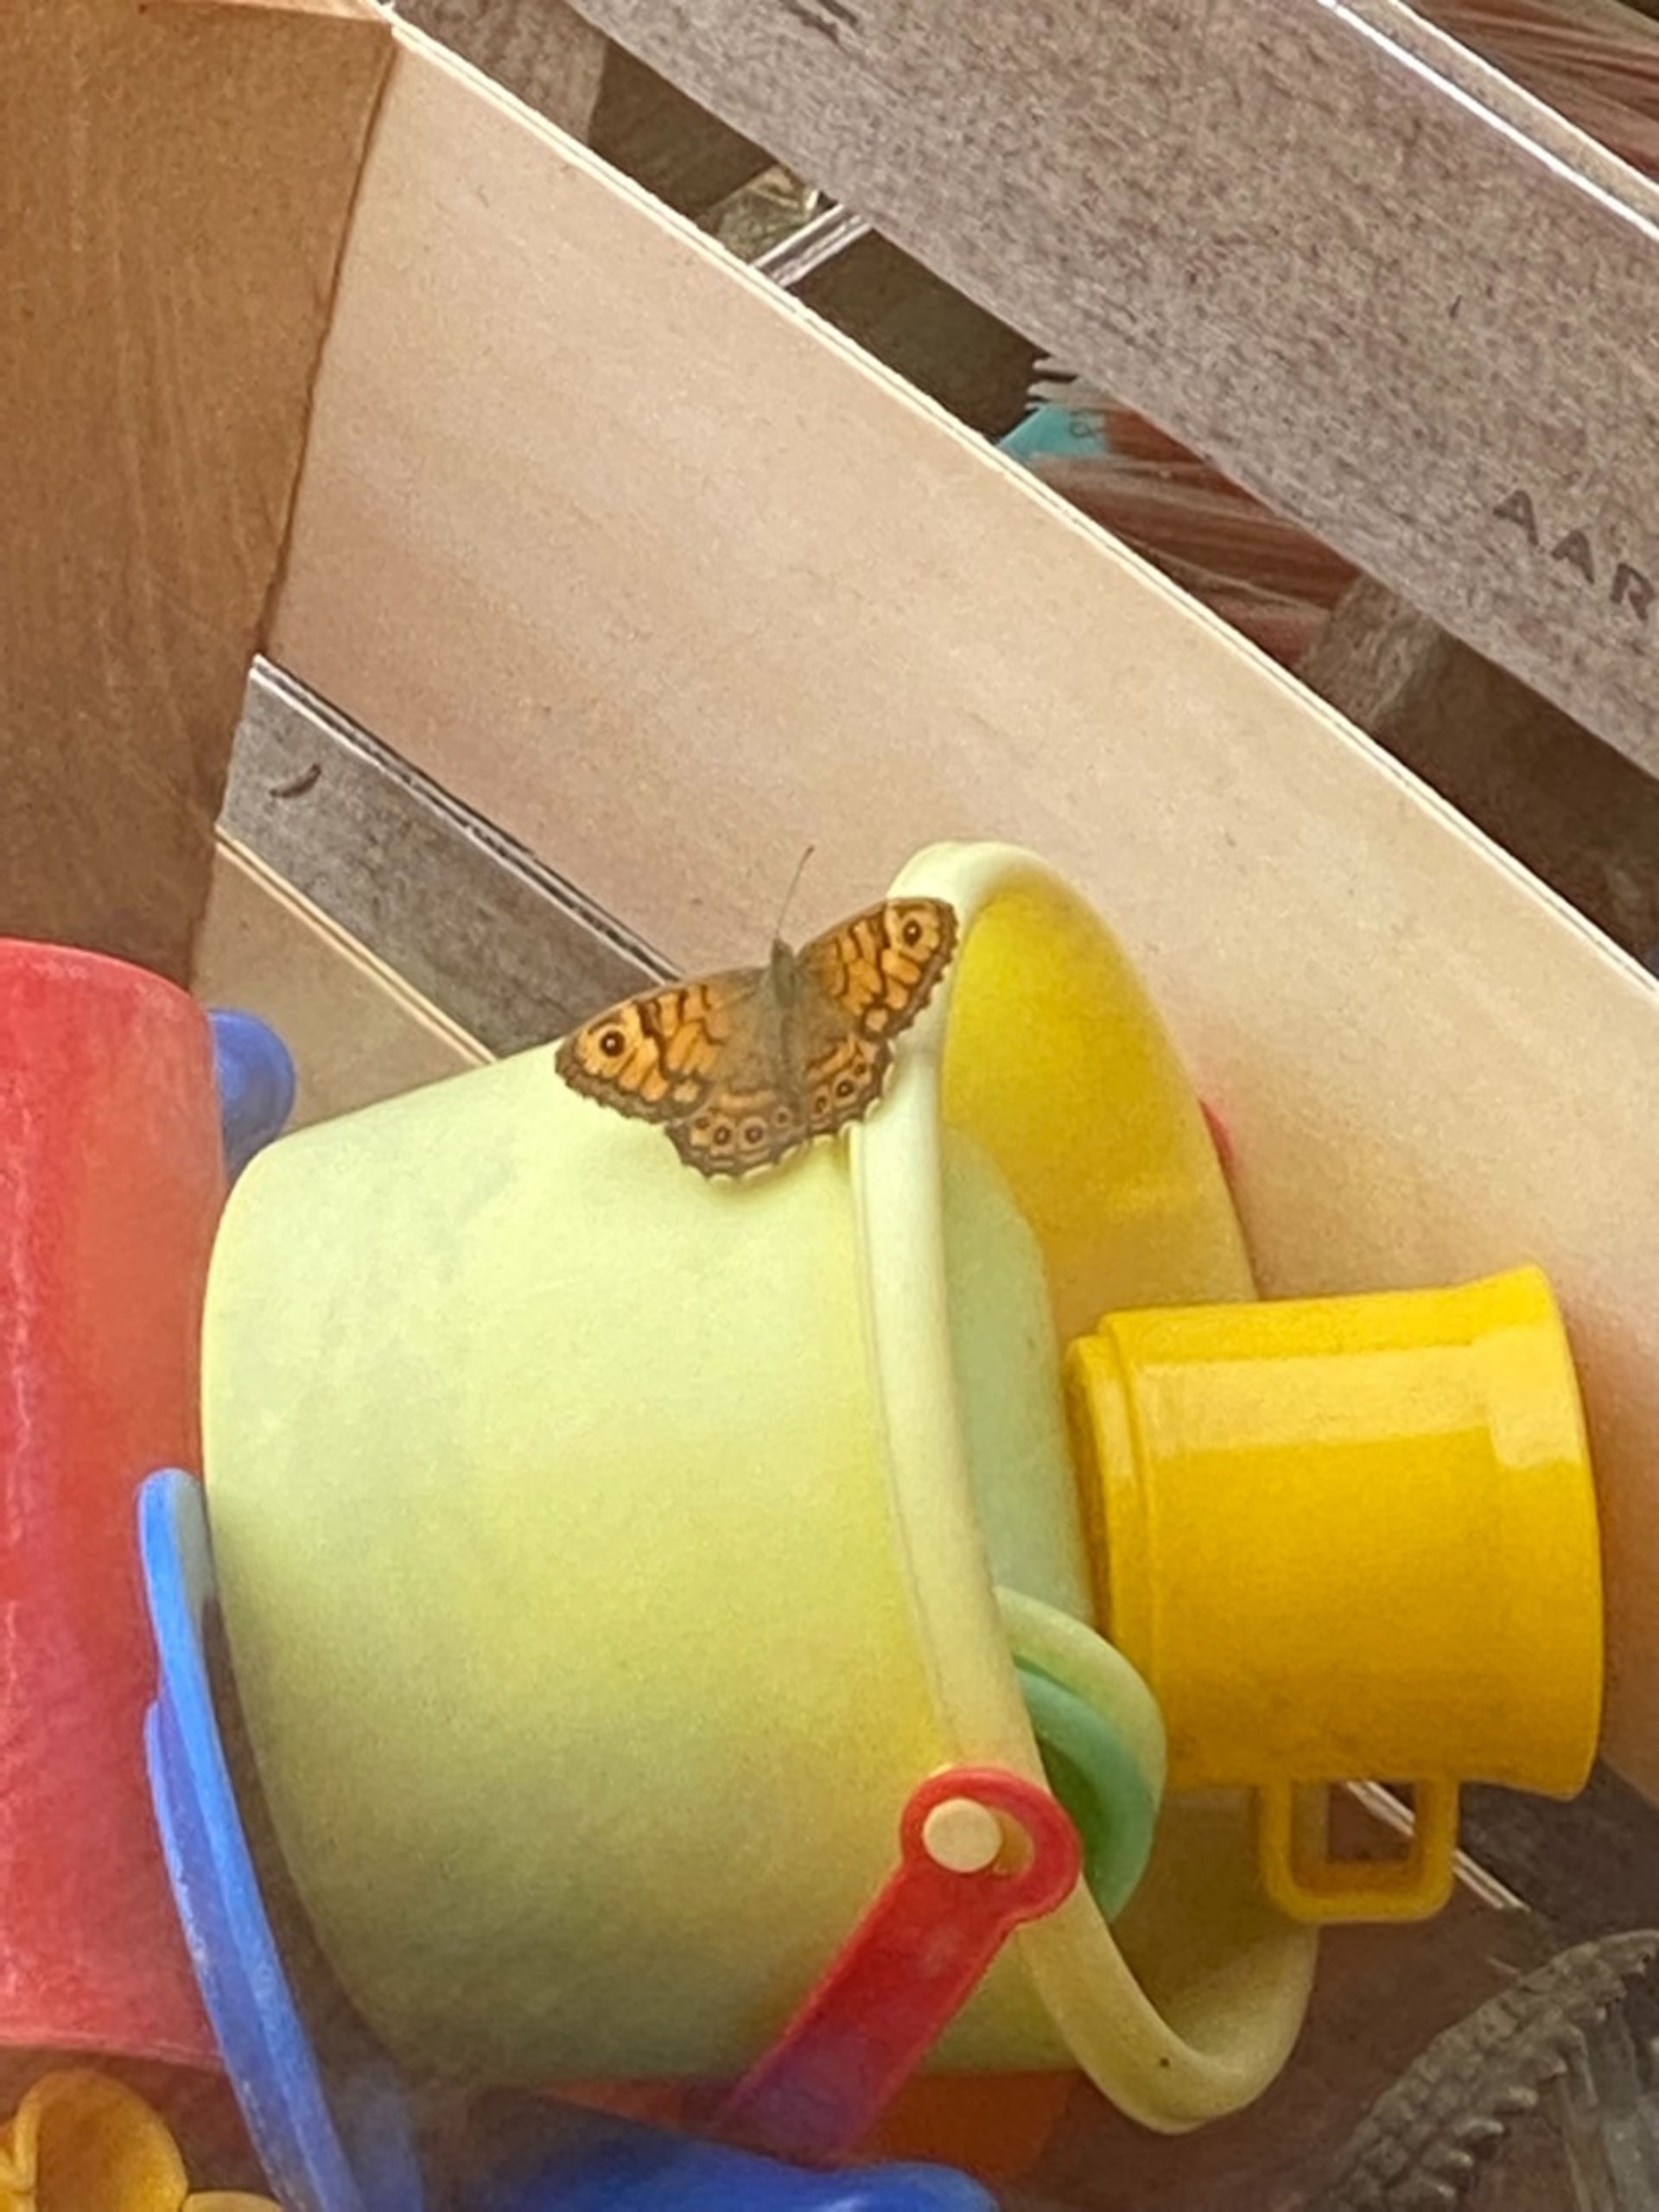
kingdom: Animalia
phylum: Arthropoda
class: Insecta
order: Lepidoptera
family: Nymphalidae
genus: Pararge
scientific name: Pararge Lasiommata megera
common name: Vejrandøje
